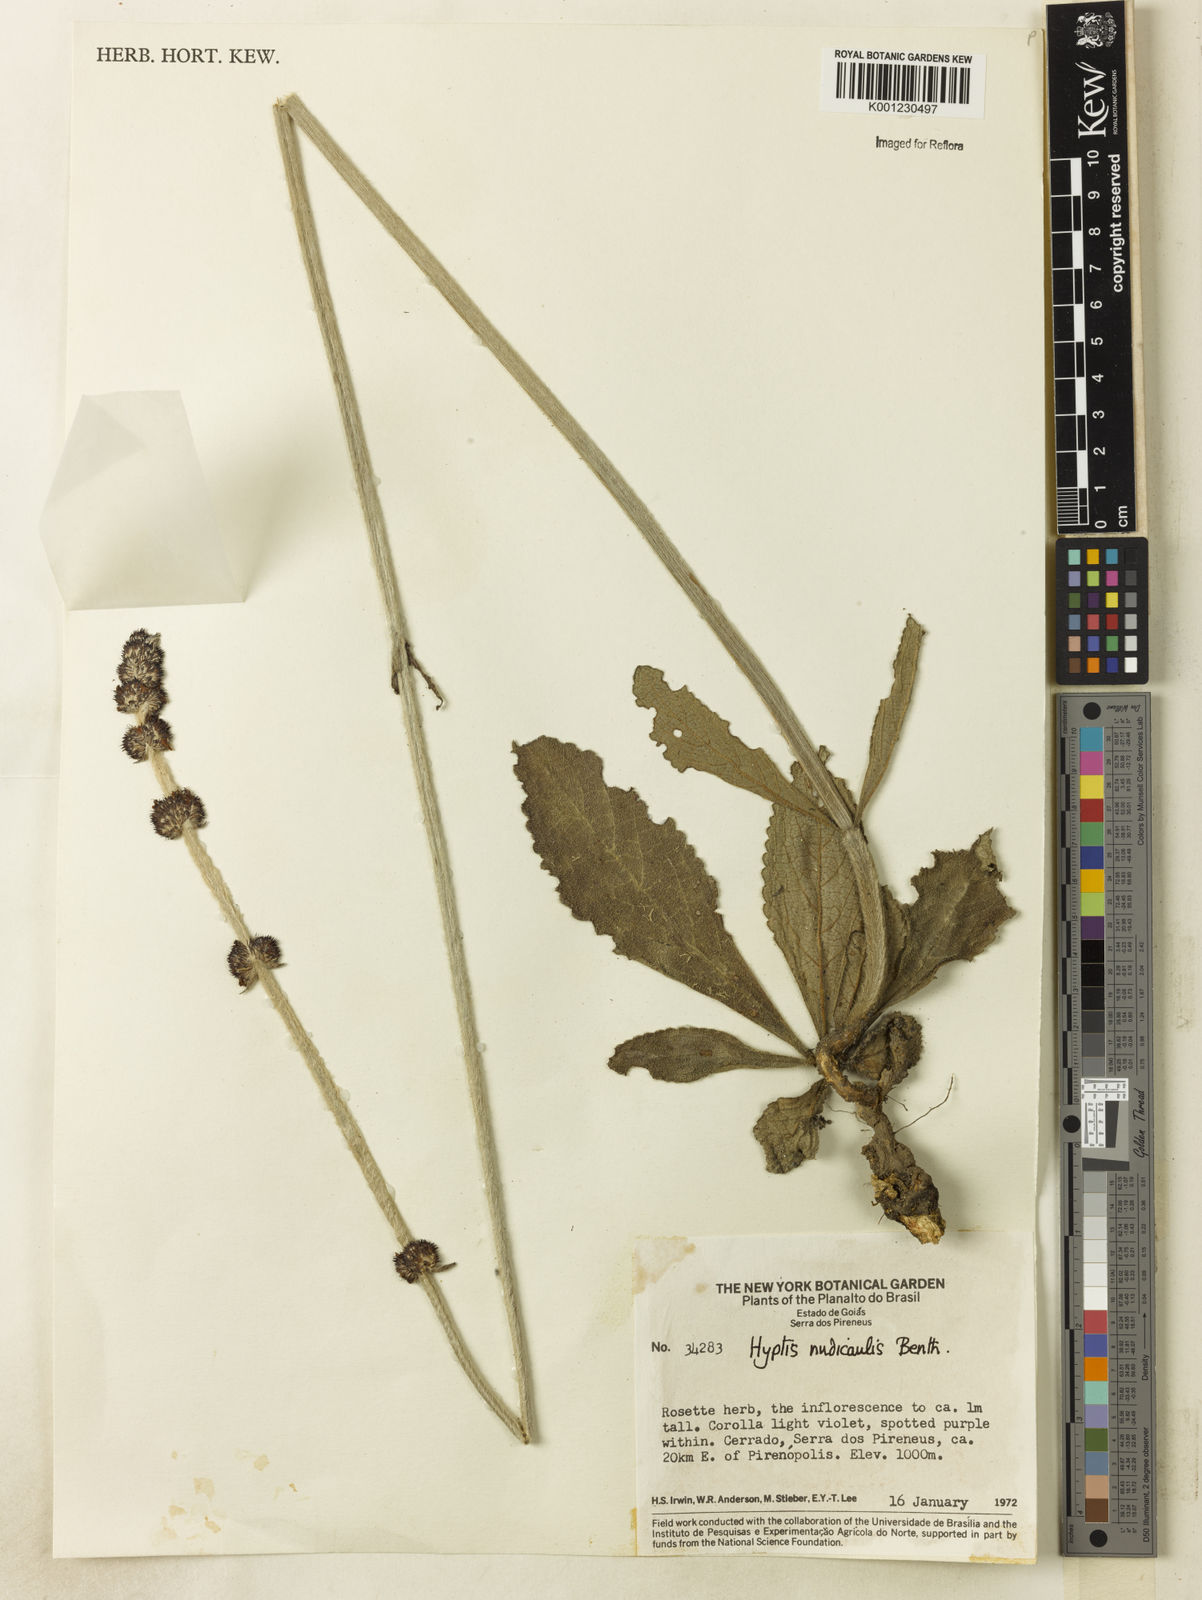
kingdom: Plantae
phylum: Tracheophyta
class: Magnoliopsida
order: Lamiales
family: Lamiaceae
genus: Hyptis
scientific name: Hyptis nudicaulis
